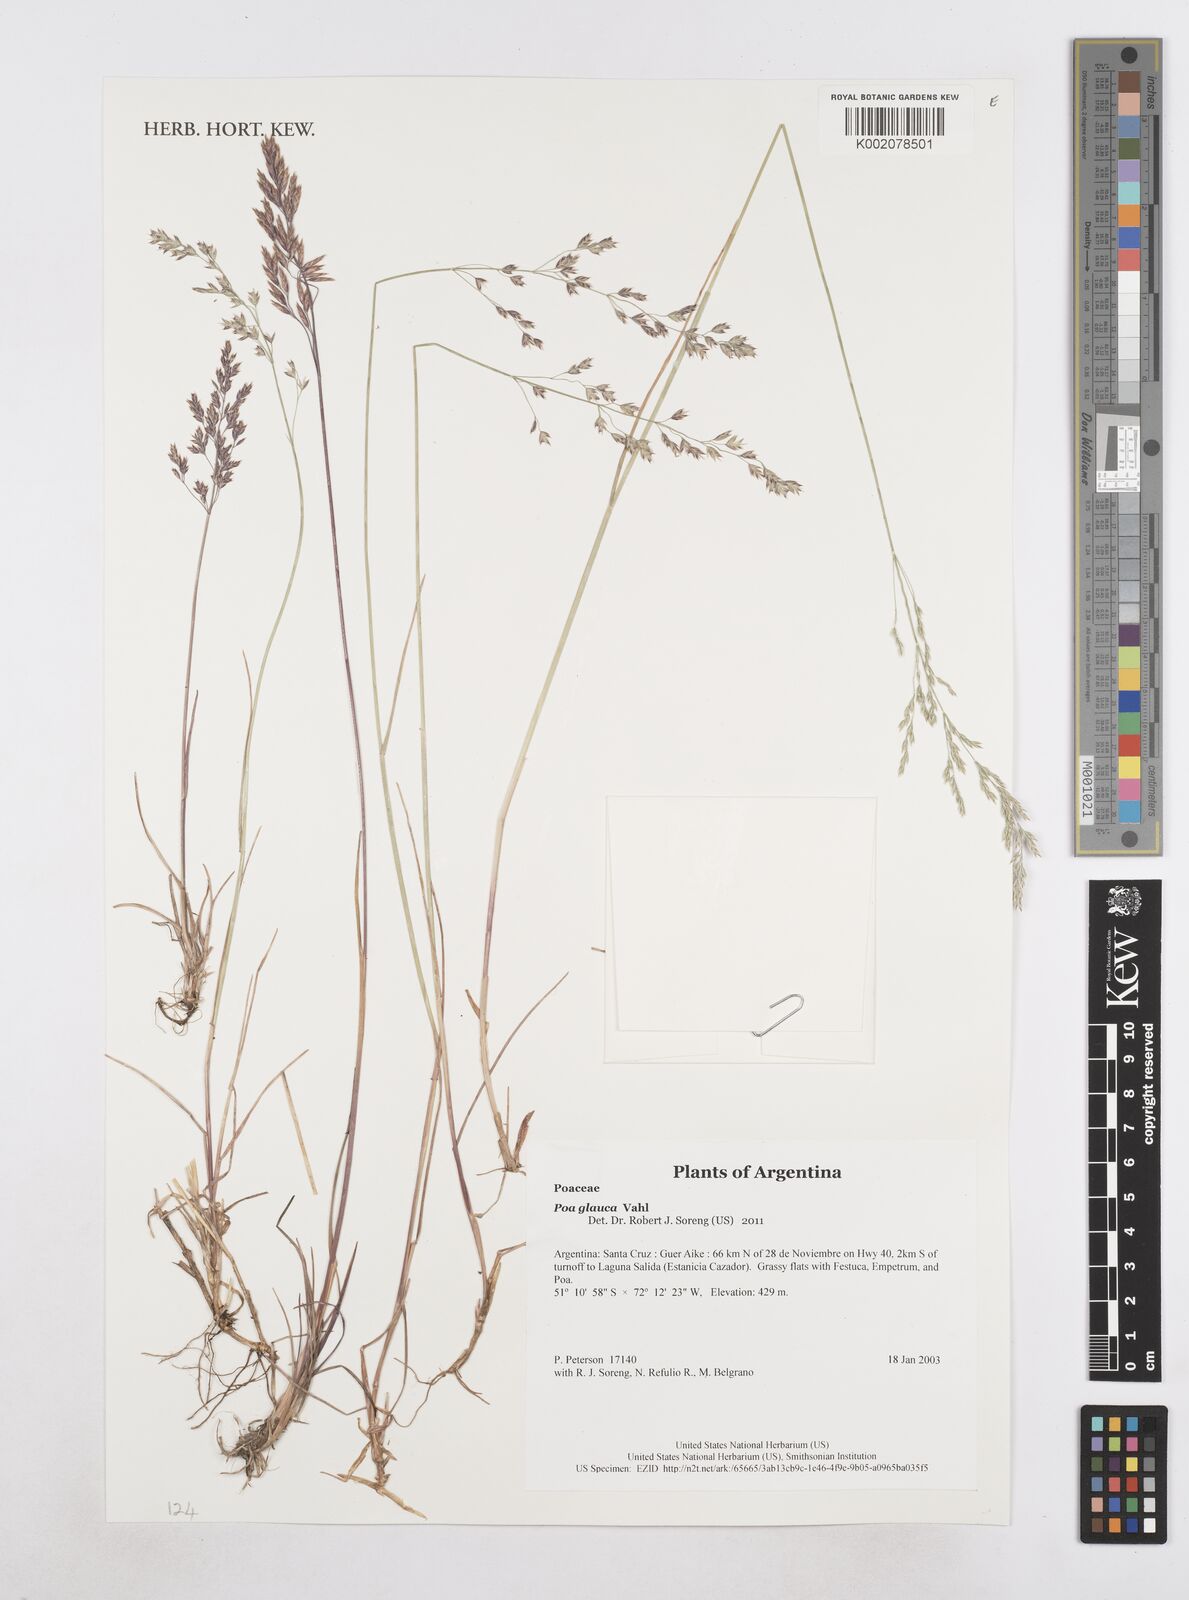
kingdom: Plantae
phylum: Tracheophyta
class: Liliopsida
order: Poales
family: Poaceae
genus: Poa
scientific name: Poa glauca
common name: Glaucous bluegrass
